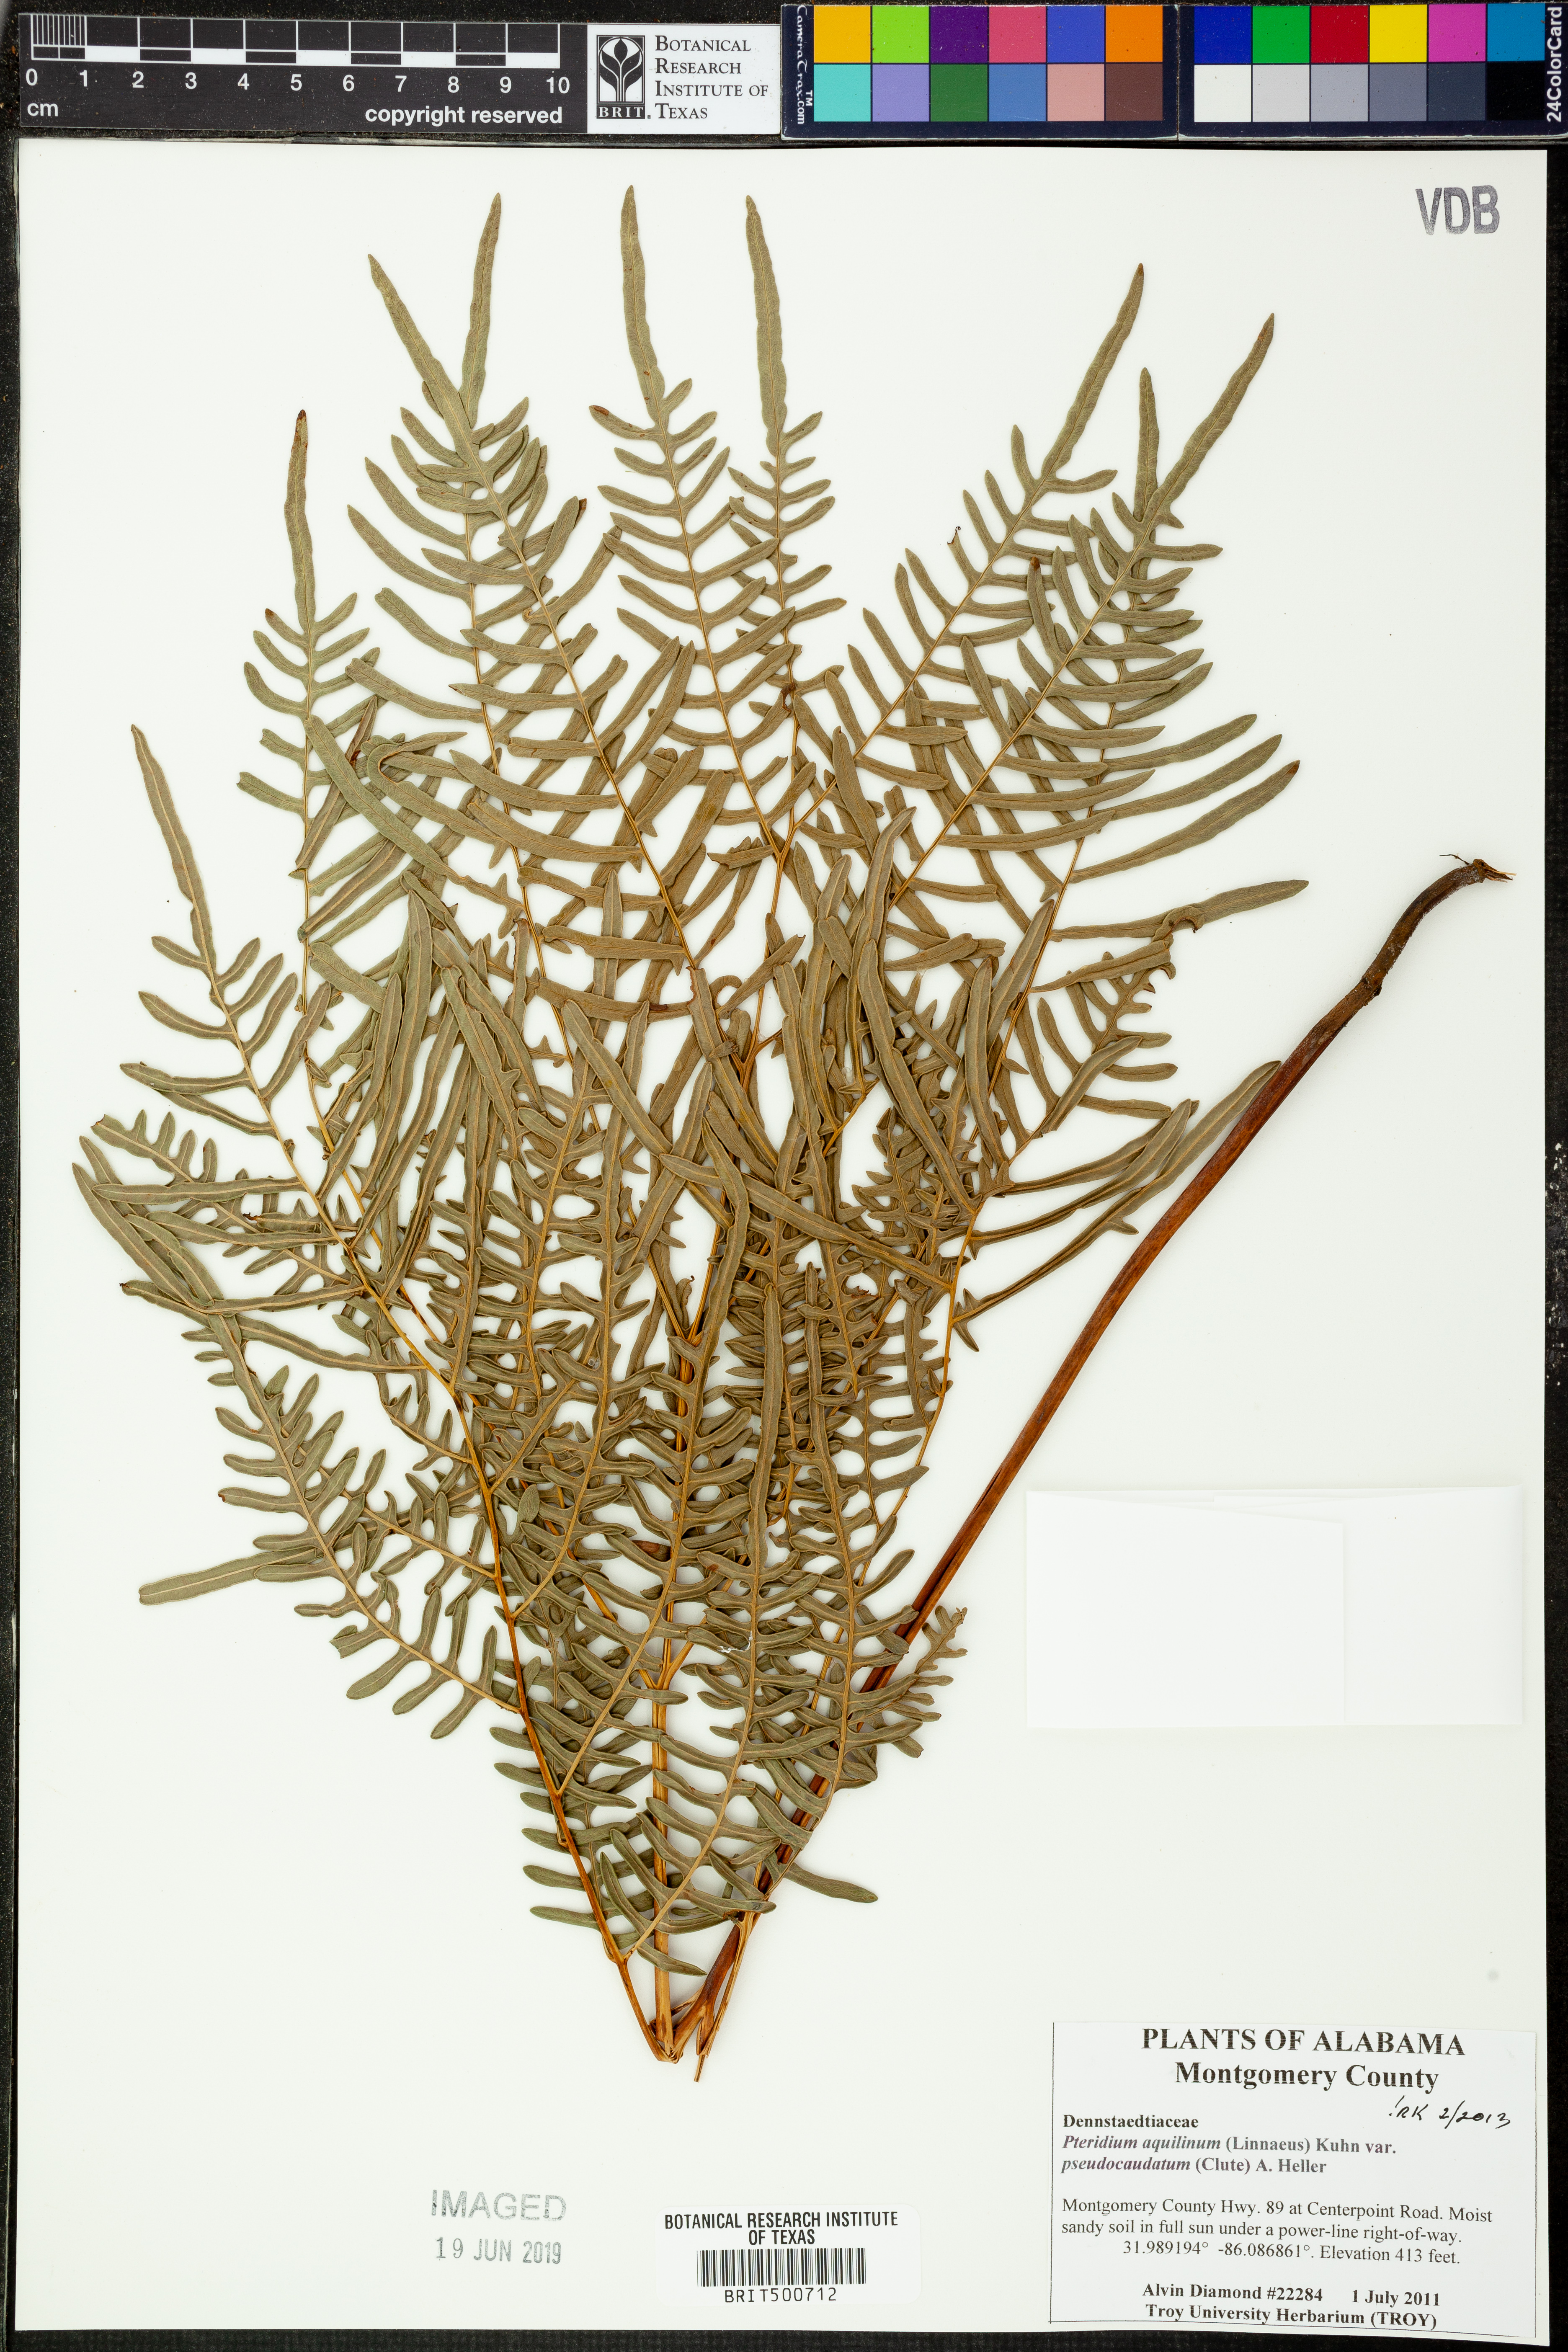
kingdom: Plantae
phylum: Tracheophyta
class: Polypodiopsida
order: Polypodiales
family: Dennstaedtiaceae
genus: Pteridium
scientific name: Pteridium aquilinum
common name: Bracken
